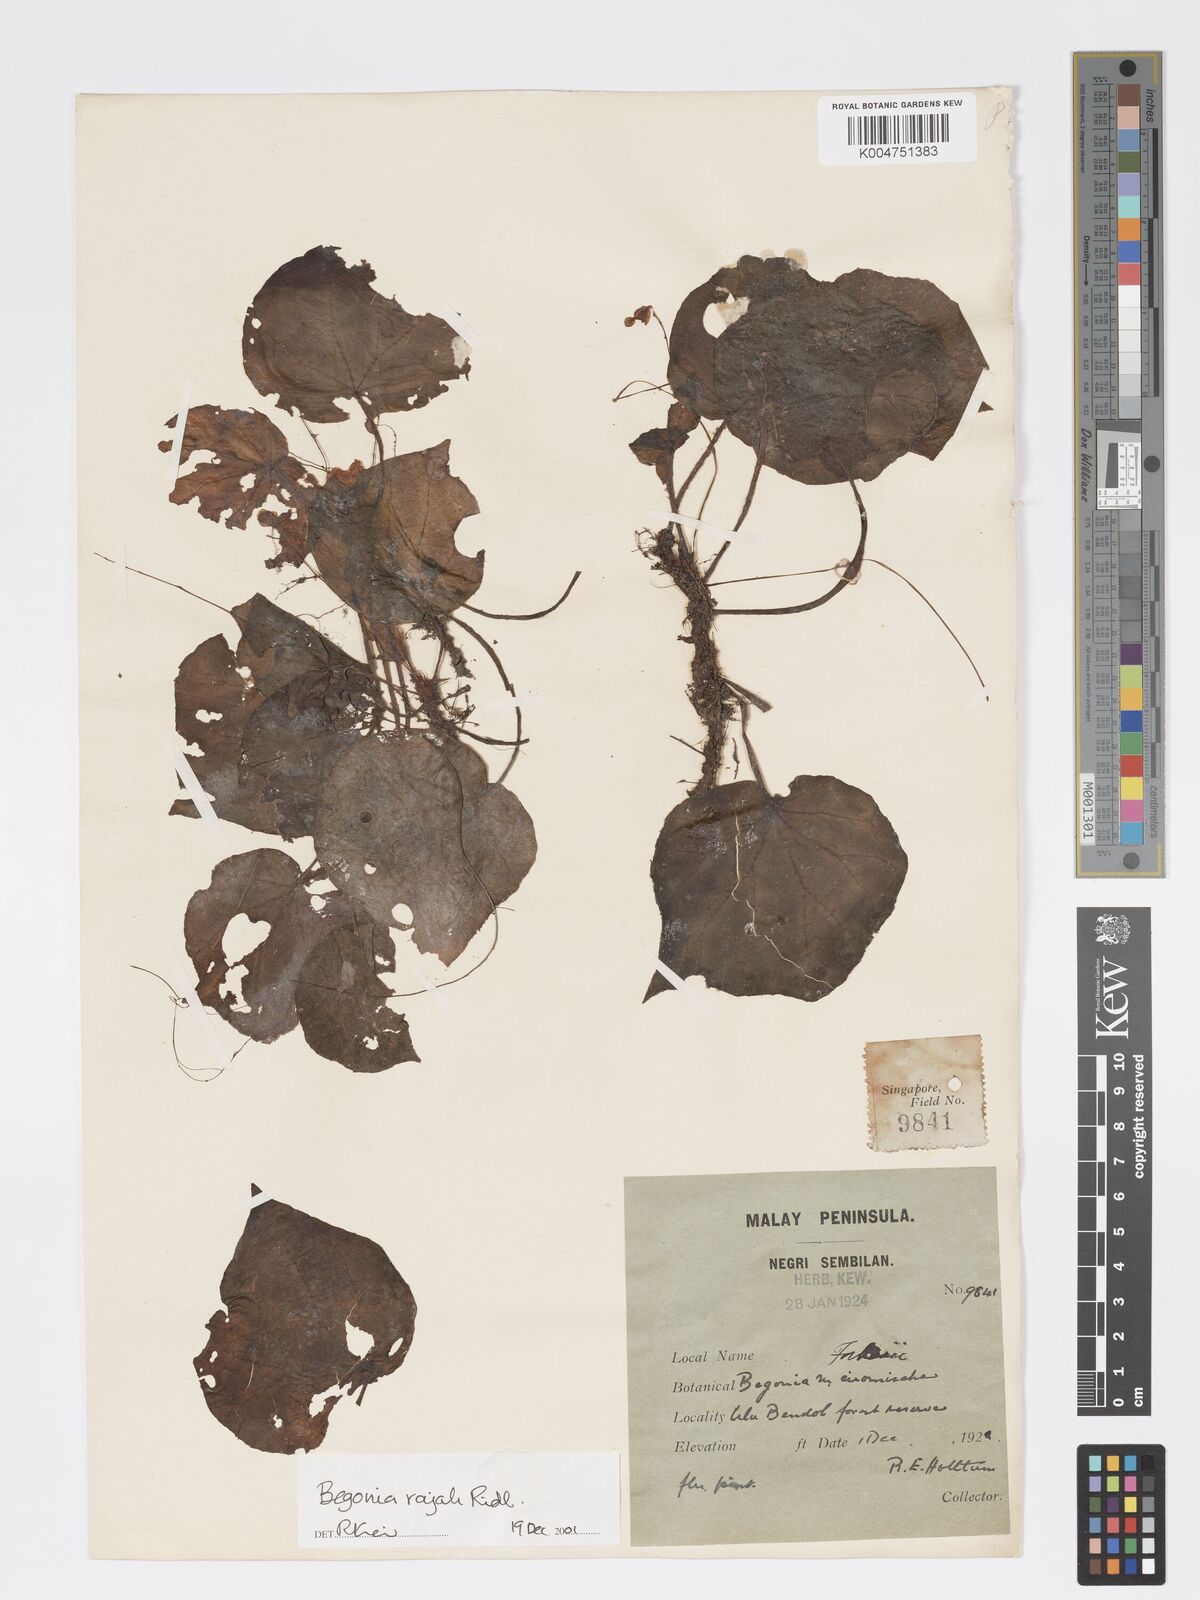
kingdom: Plantae
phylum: Tracheophyta
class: Magnoliopsida
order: Cucurbitales
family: Begoniaceae
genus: Begonia
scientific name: Begonia rajah
